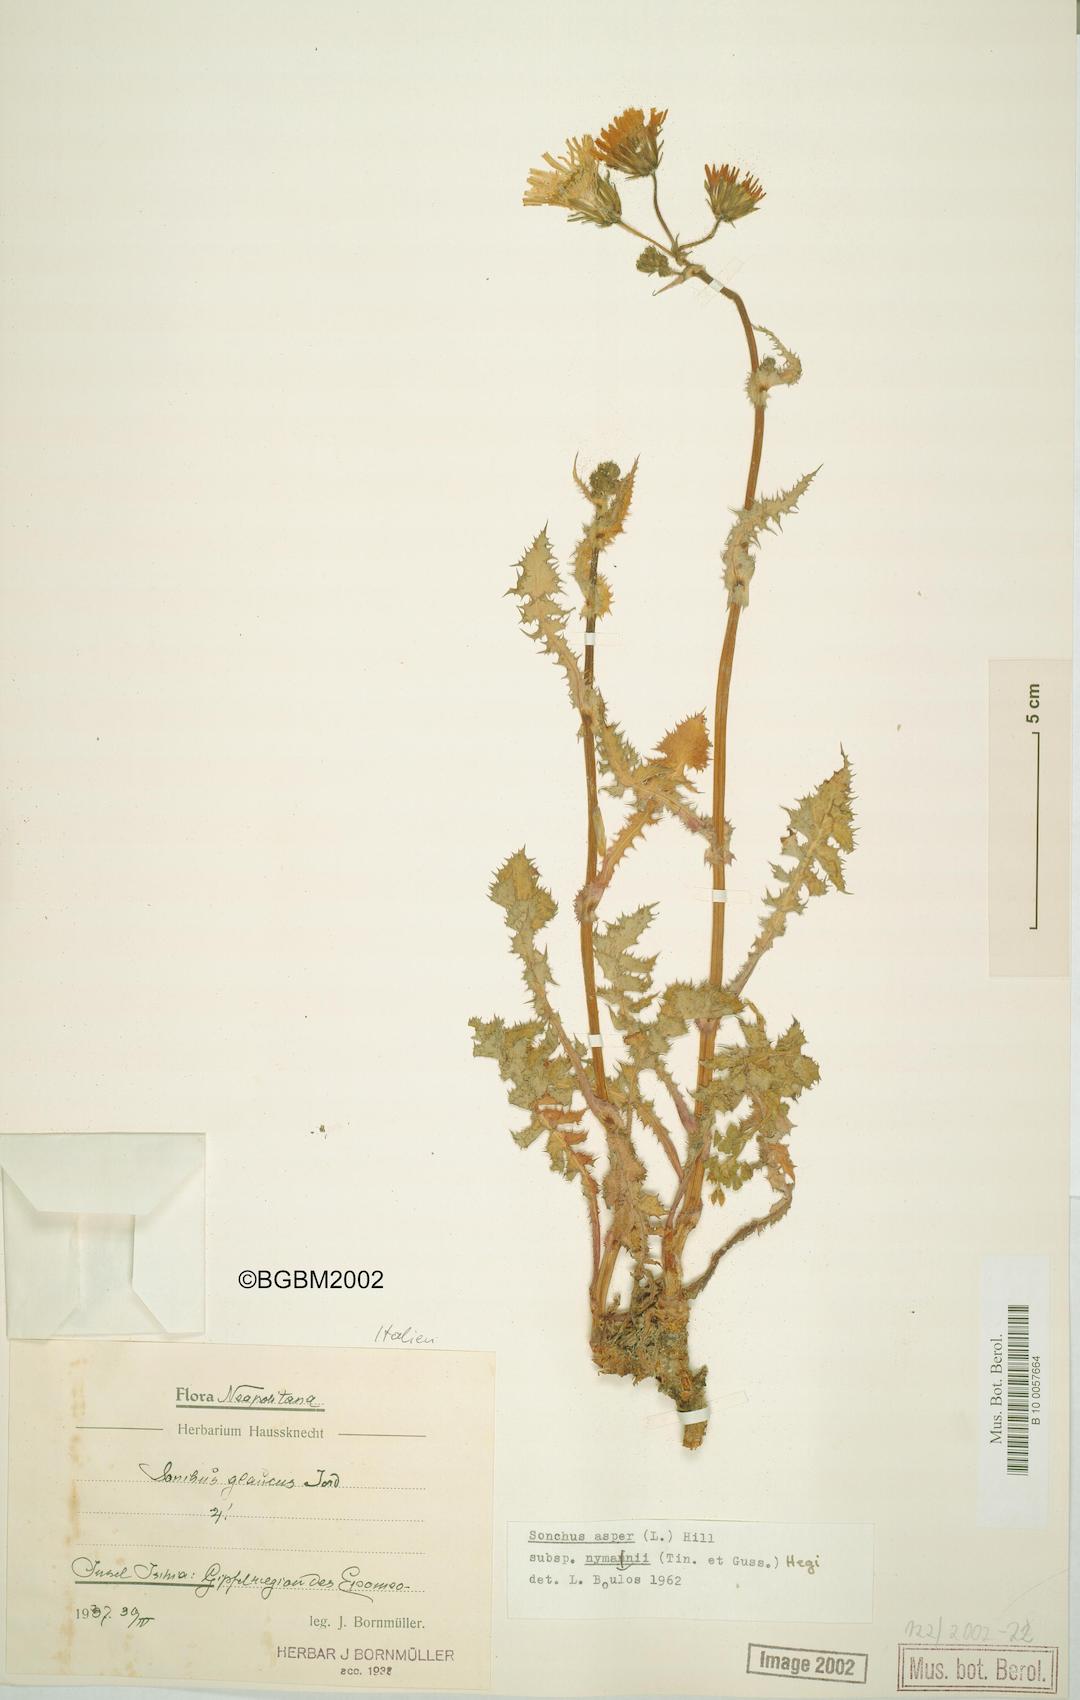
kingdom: Plantae
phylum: Tracheophyta
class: Magnoliopsida
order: Asterales
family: Asteraceae
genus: Sonchus
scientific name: Sonchus asper
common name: Prickly sow-thistle
